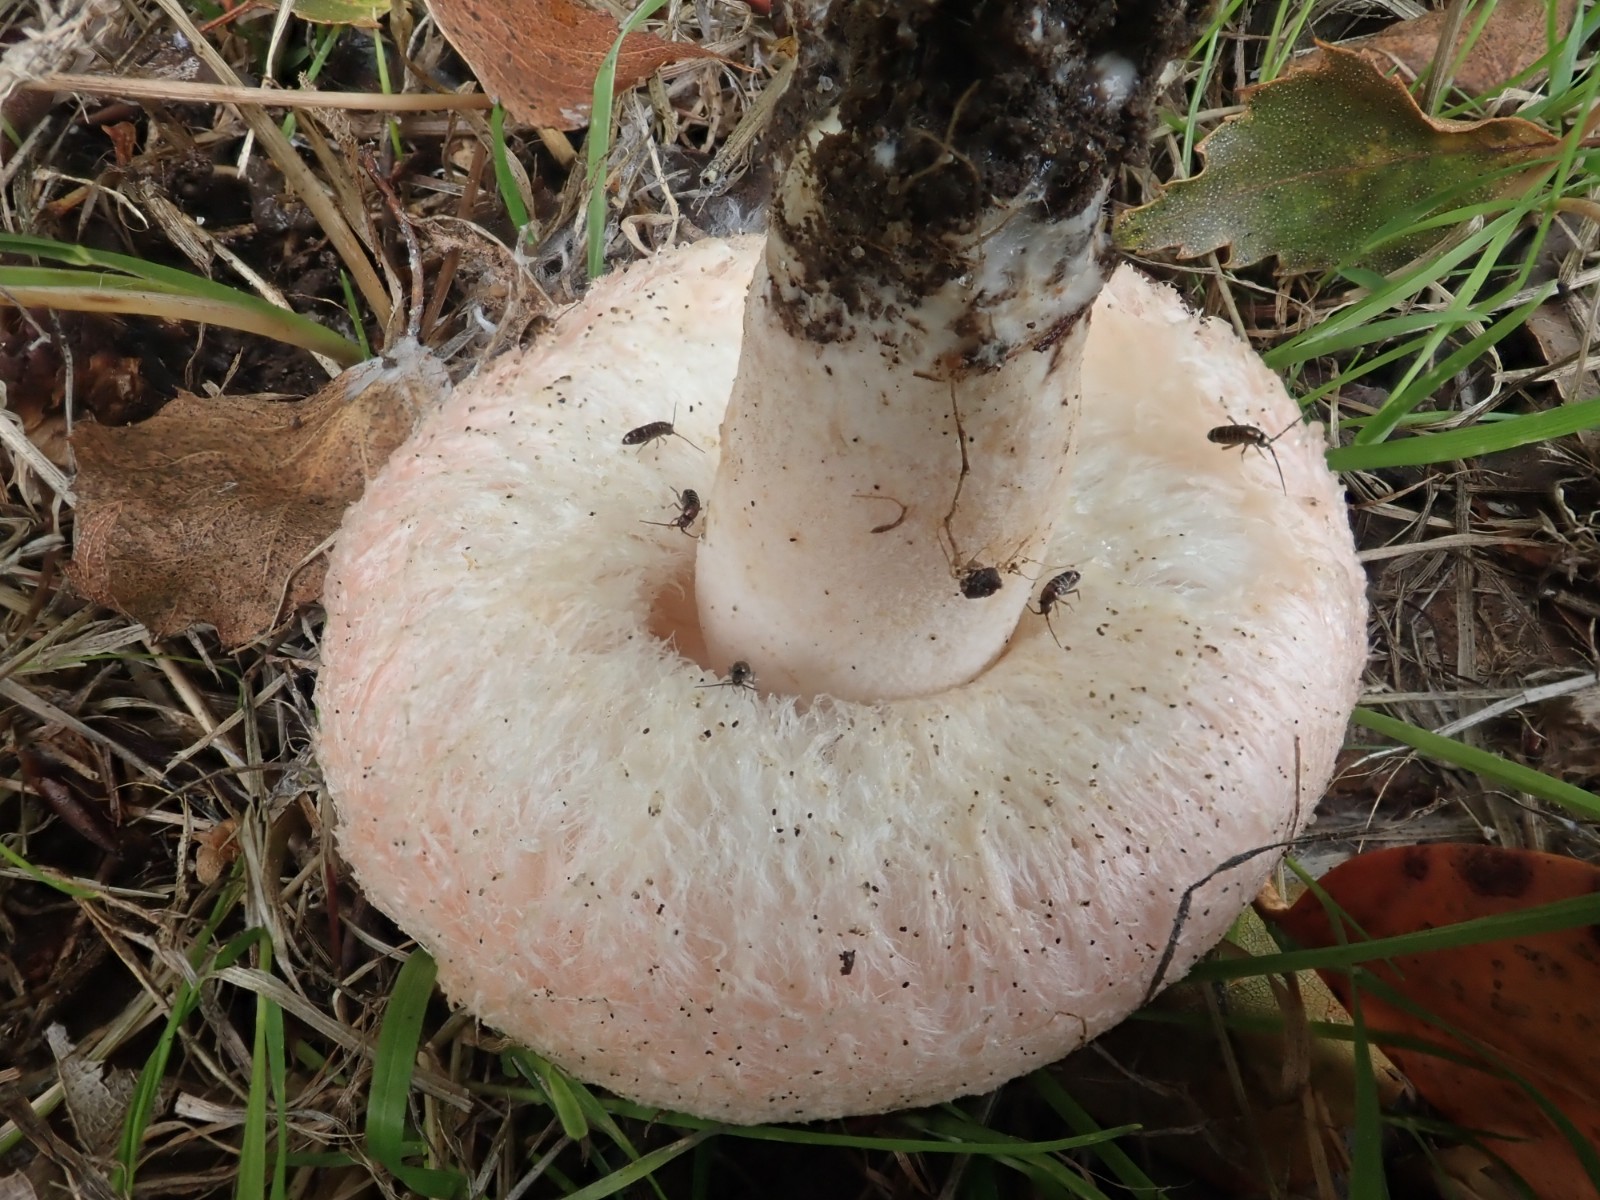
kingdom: Fungi
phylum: Basidiomycota
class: Agaricomycetes
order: Russulales
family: Russulaceae
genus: Lactarius
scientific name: Lactarius pubescens
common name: dunet mælkehat
